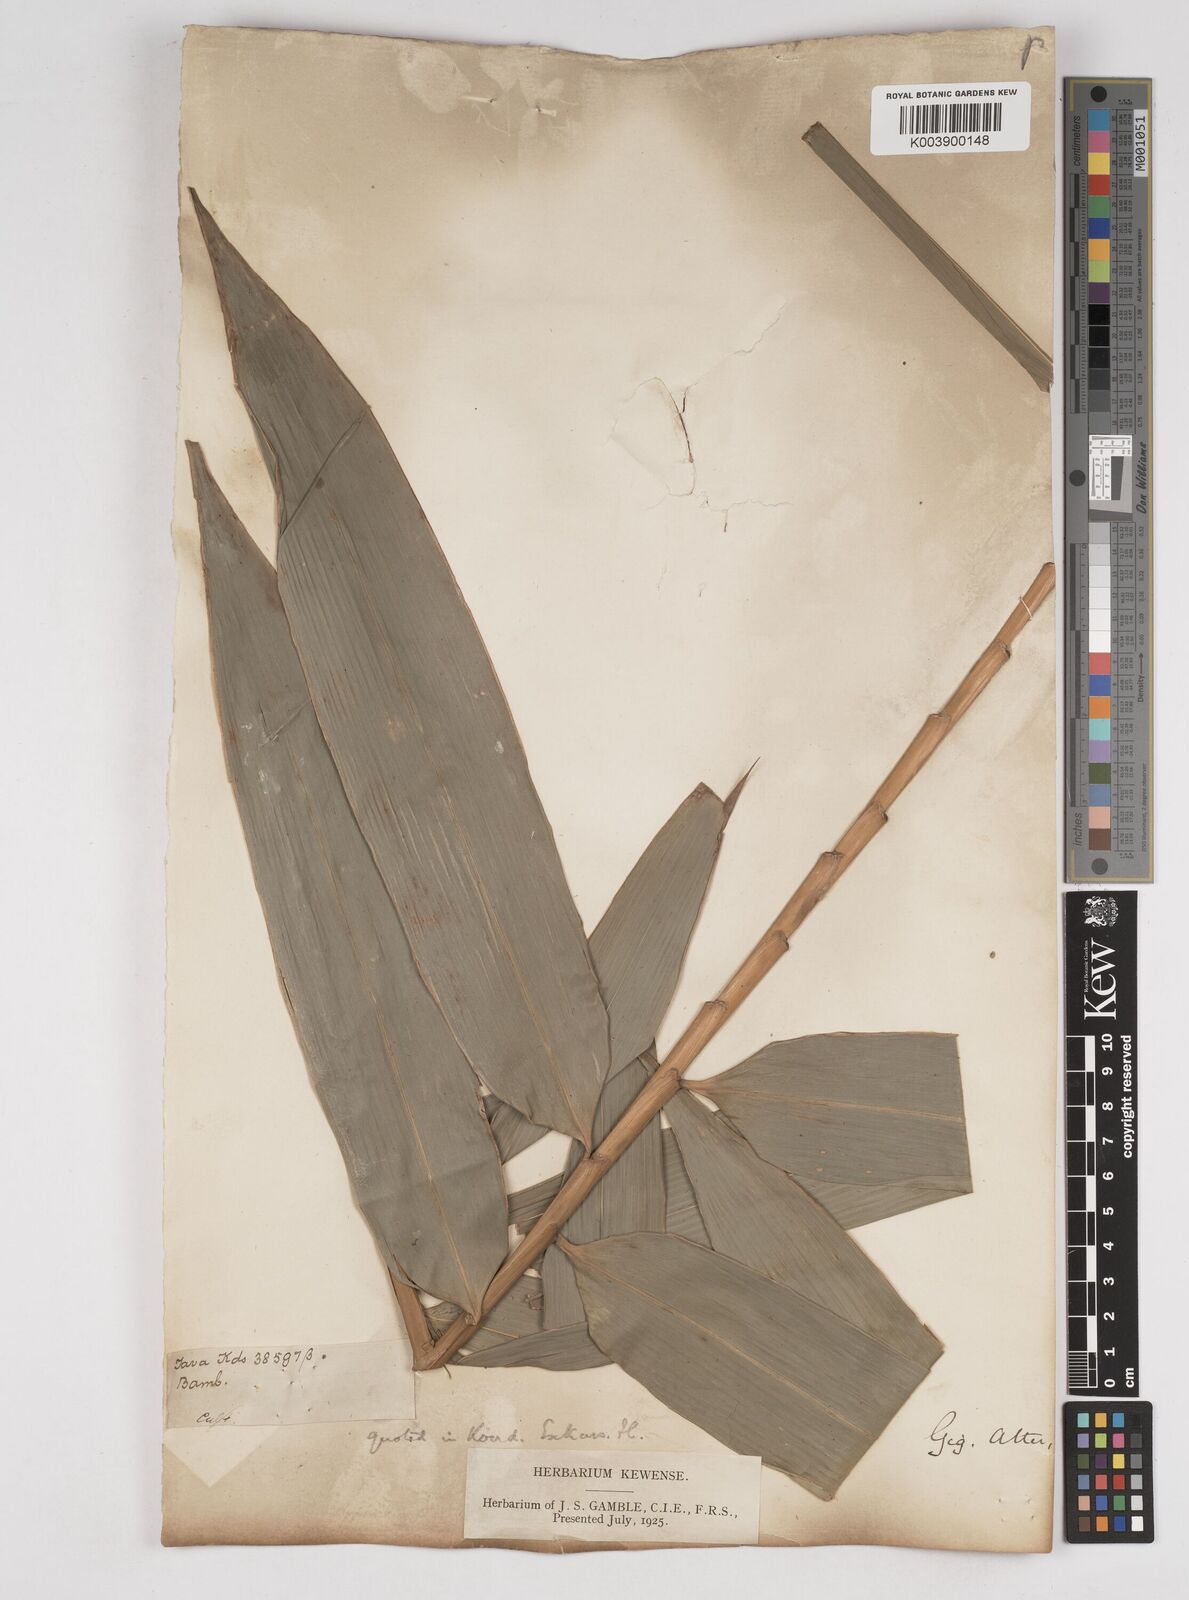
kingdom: Plantae
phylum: Tracheophyta
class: Liliopsida
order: Poales
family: Poaceae
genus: Gigantochloa
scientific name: Gigantochloa atter
